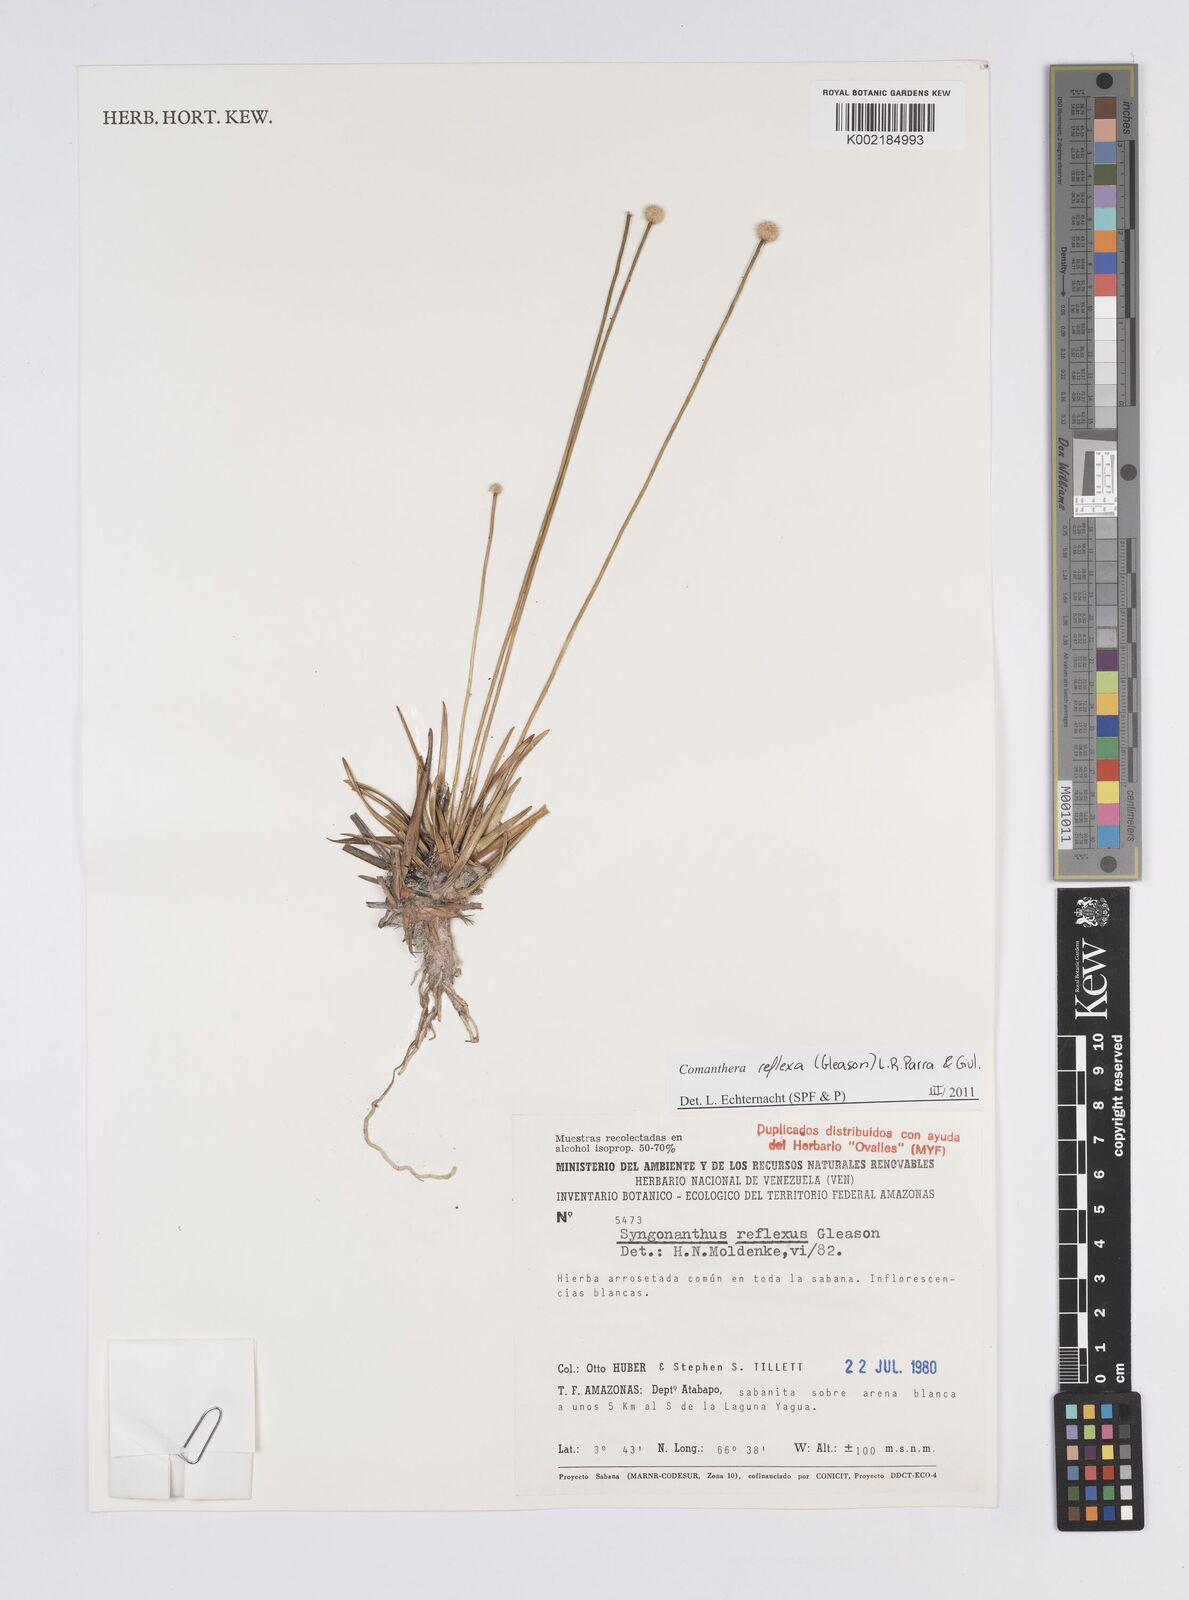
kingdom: Plantae
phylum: Tracheophyta
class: Liliopsida
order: Poales
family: Eriocaulaceae
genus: Comanthera
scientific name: Comanthera reflexa
